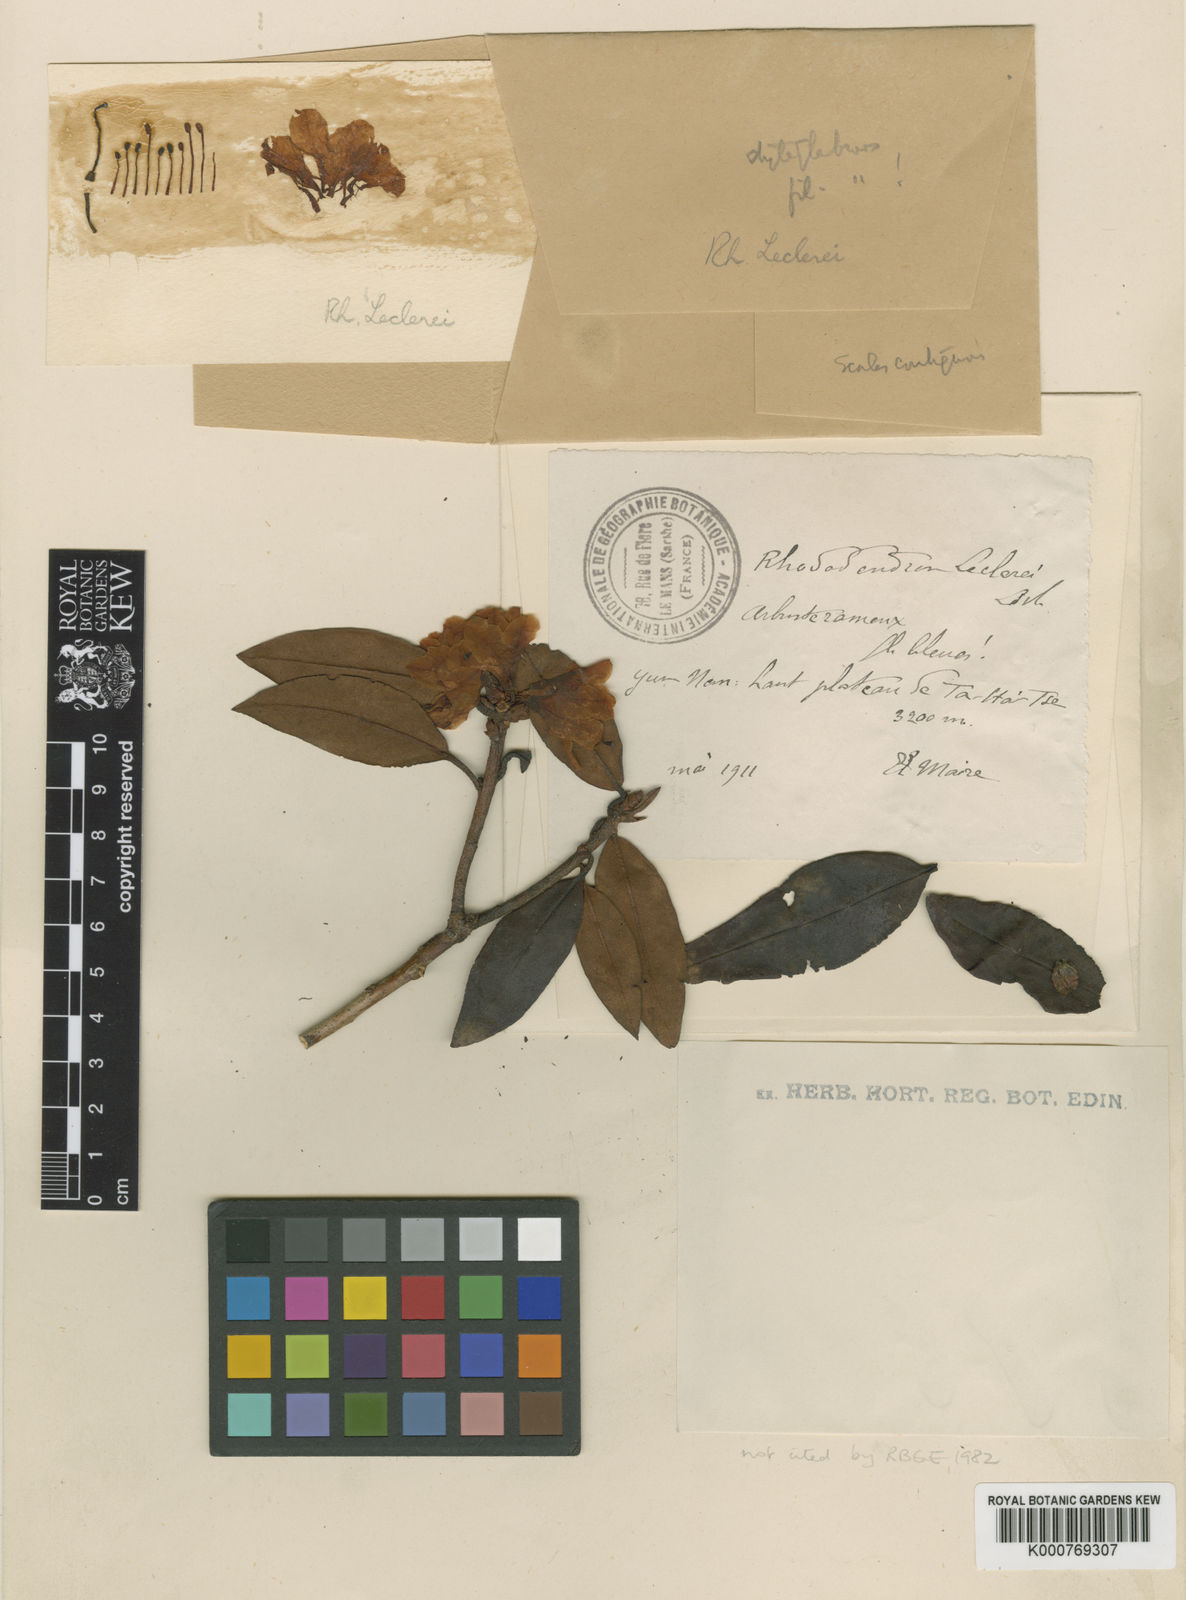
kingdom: Plantae
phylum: Tracheophyta
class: Magnoliopsida
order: Ericales
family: Ericaceae
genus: Rhododendron
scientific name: Rhododendron rubiginosum
